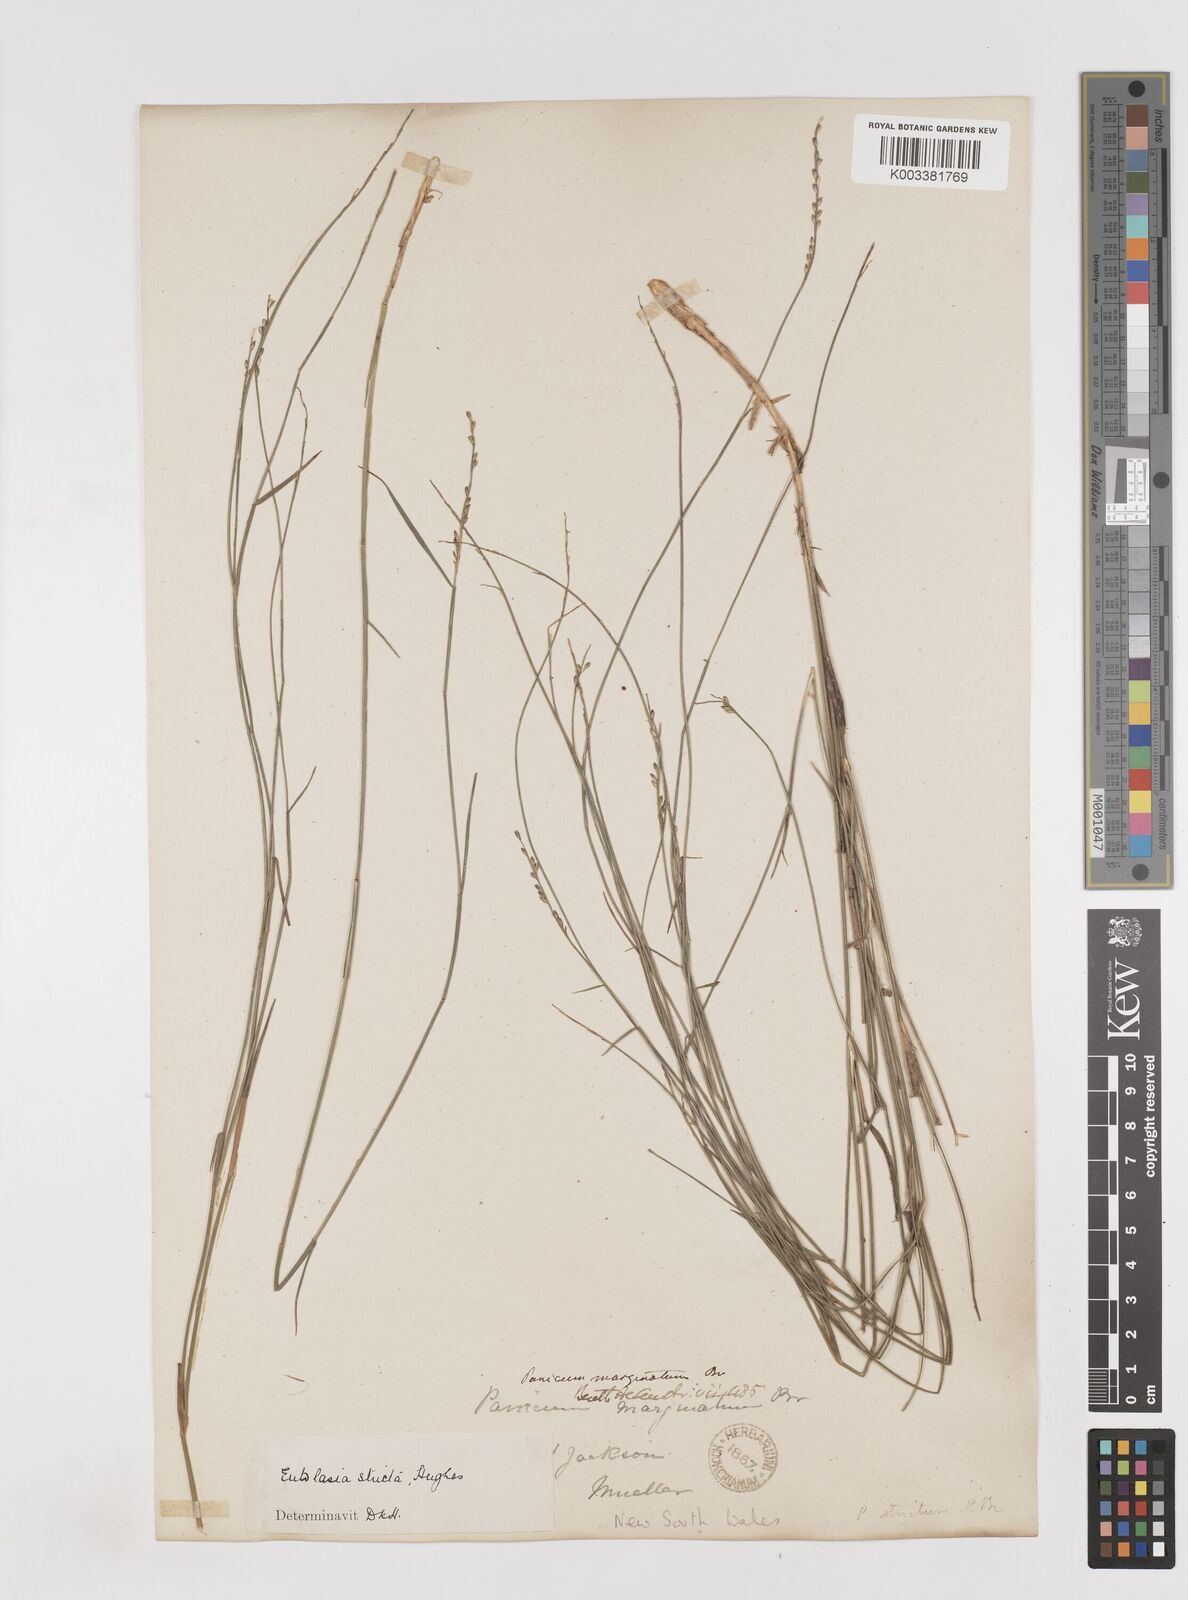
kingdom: Plantae
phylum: Tracheophyta
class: Liliopsida
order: Poales
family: Poaceae
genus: Entolasia
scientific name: Entolasia stricta
